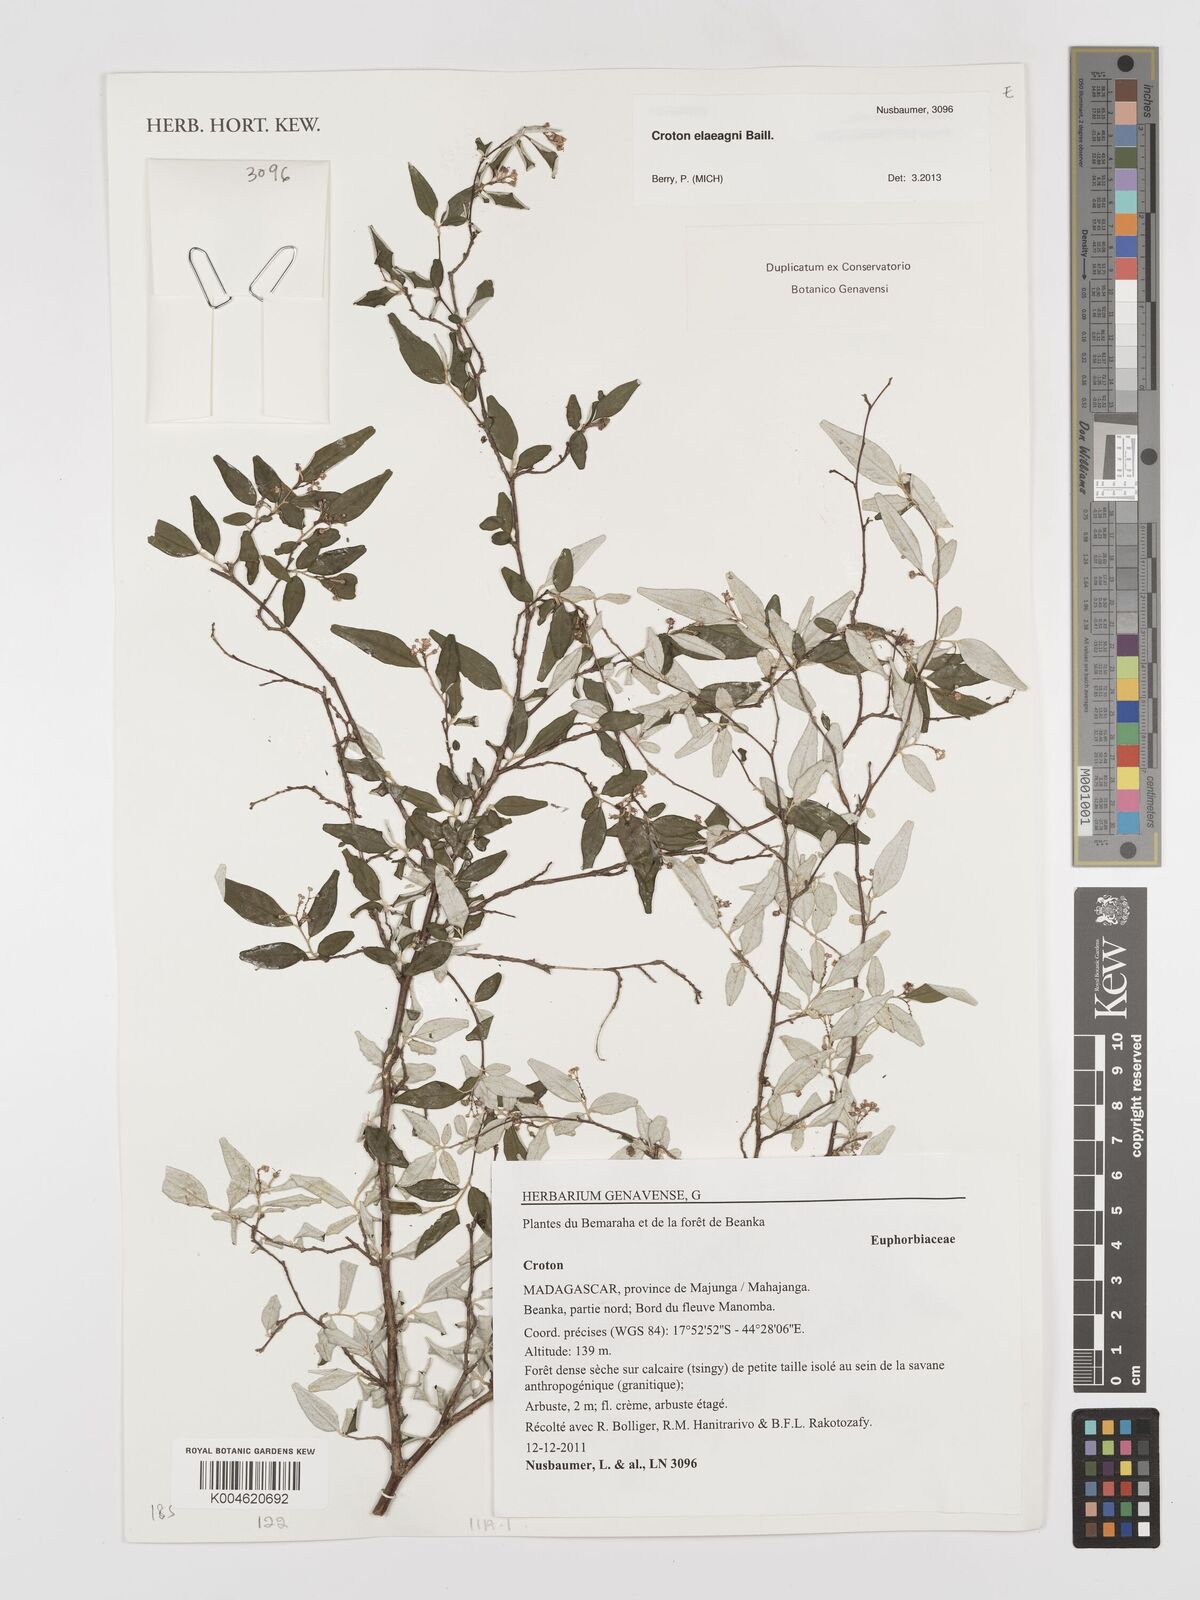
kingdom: Plantae
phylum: Tracheophyta
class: Magnoliopsida
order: Malpighiales
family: Euphorbiaceae
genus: Croton
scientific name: Croton
